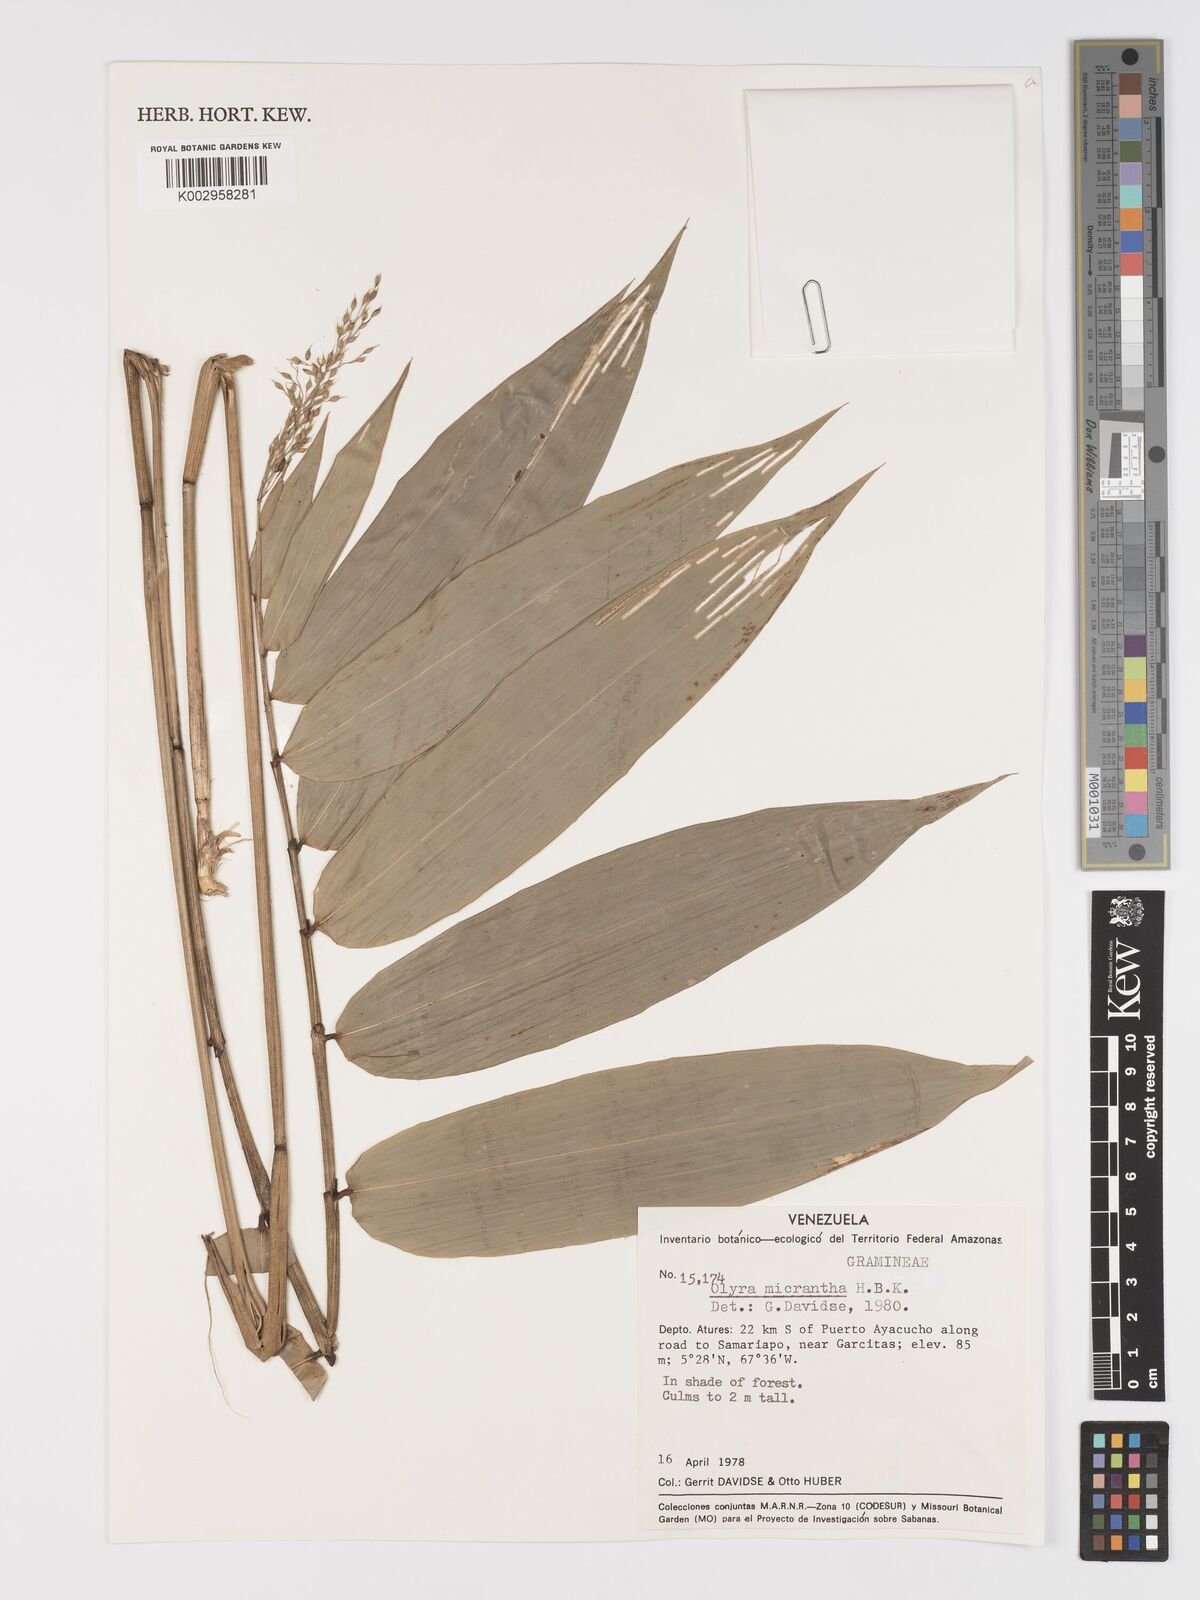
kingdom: Plantae
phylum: Tracheophyta
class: Liliopsida
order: Poales
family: Poaceae
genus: Taquara
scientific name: Taquara micrantha
